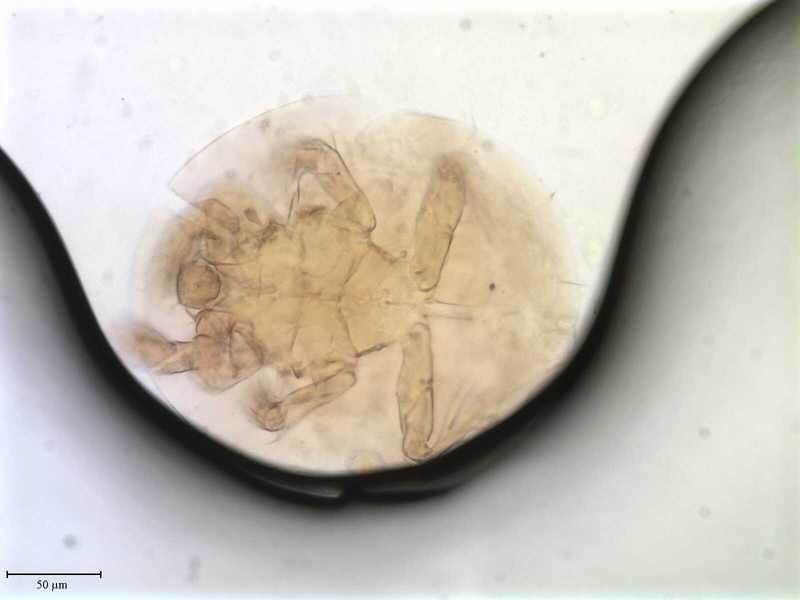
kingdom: Animalia
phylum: Arthropoda
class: Arachnida
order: Trombidiformes
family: Scutacaridae
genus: Scutacarus
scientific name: Scutacarus
